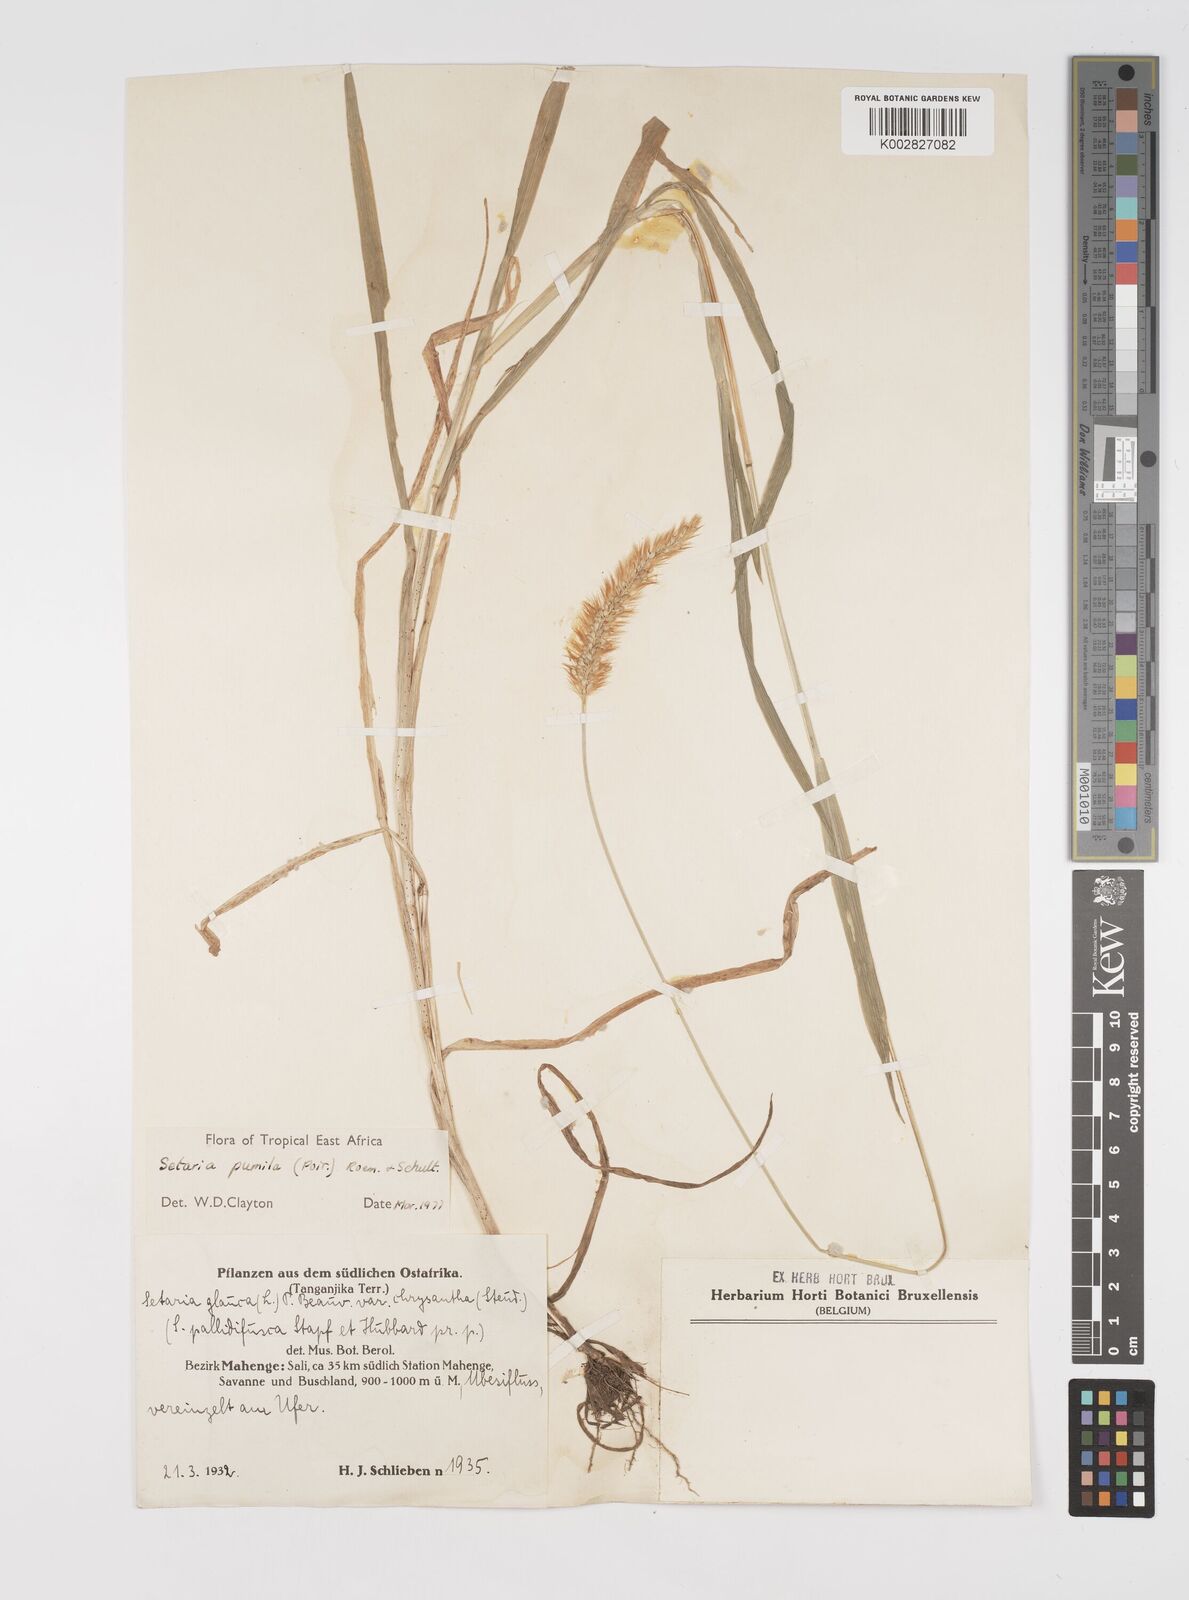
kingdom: Plantae
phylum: Tracheophyta
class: Liliopsida
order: Poales
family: Poaceae
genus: Setaria
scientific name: Setaria pumila
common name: Yellow bristle-grass
